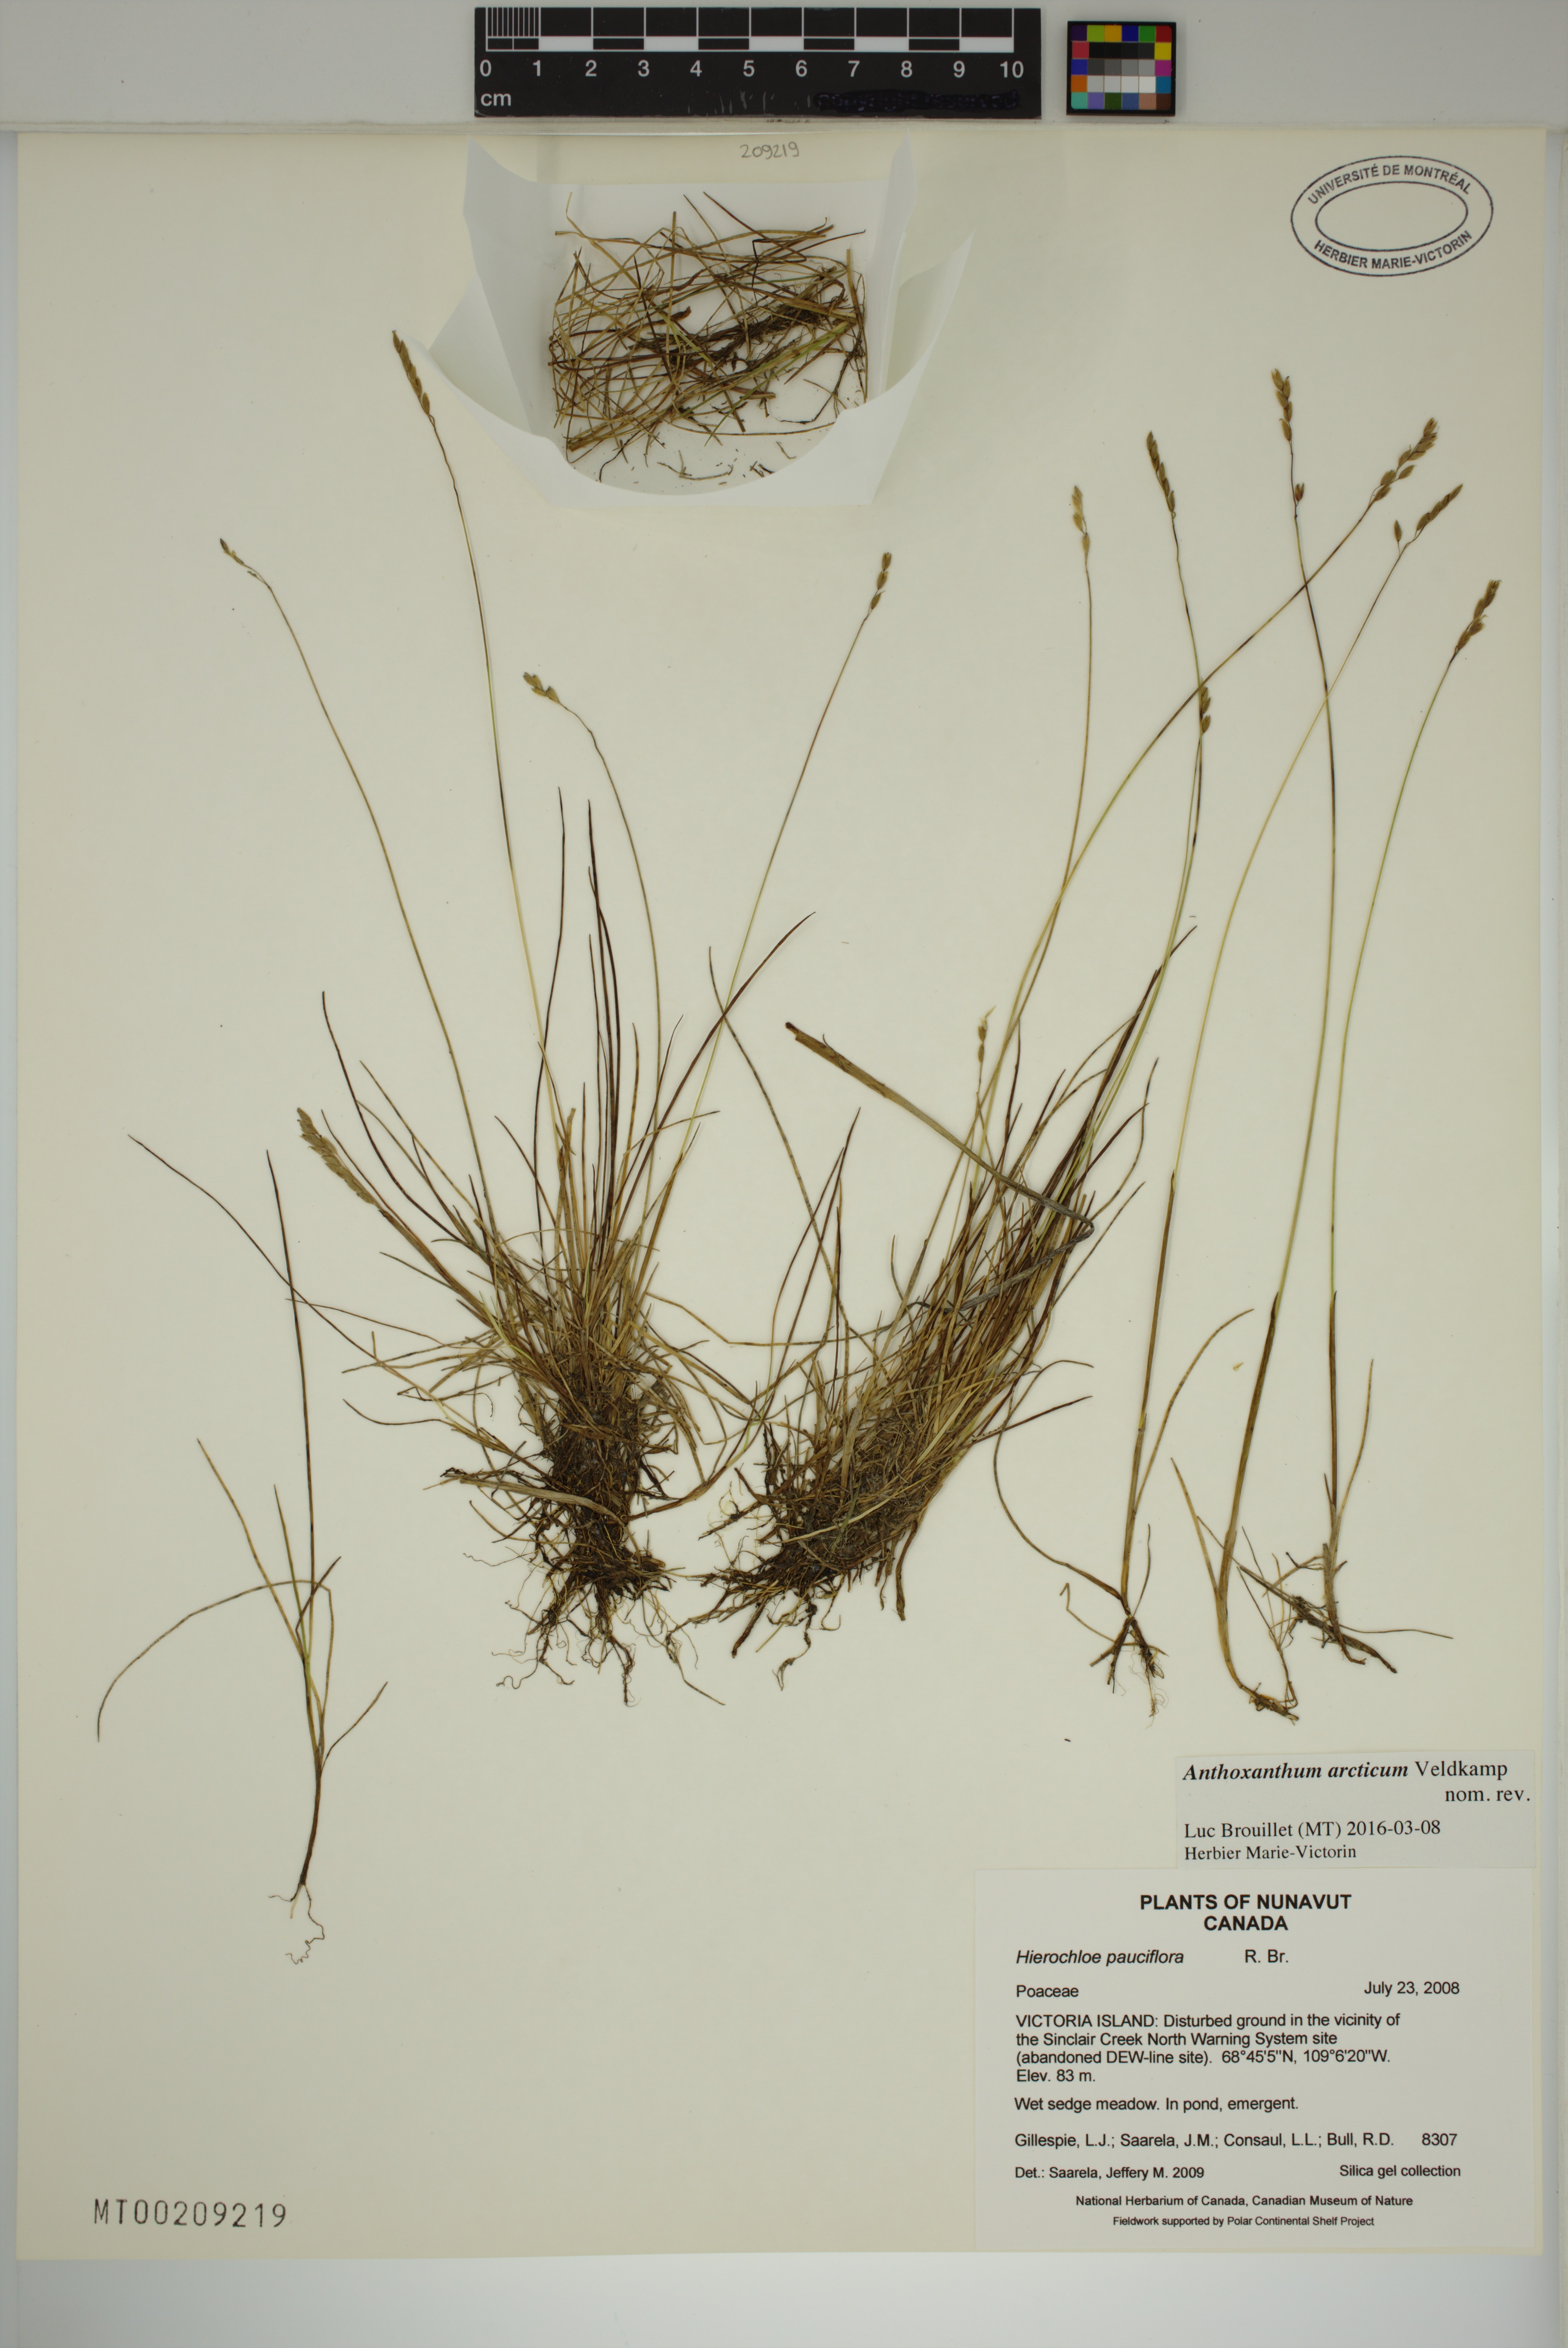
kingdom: Plantae
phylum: Tracheophyta
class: Liliopsida
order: Poales
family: Poaceae
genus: Anthoxanthum
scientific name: Anthoxanthum arcticum
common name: Arctic sweetgrass
